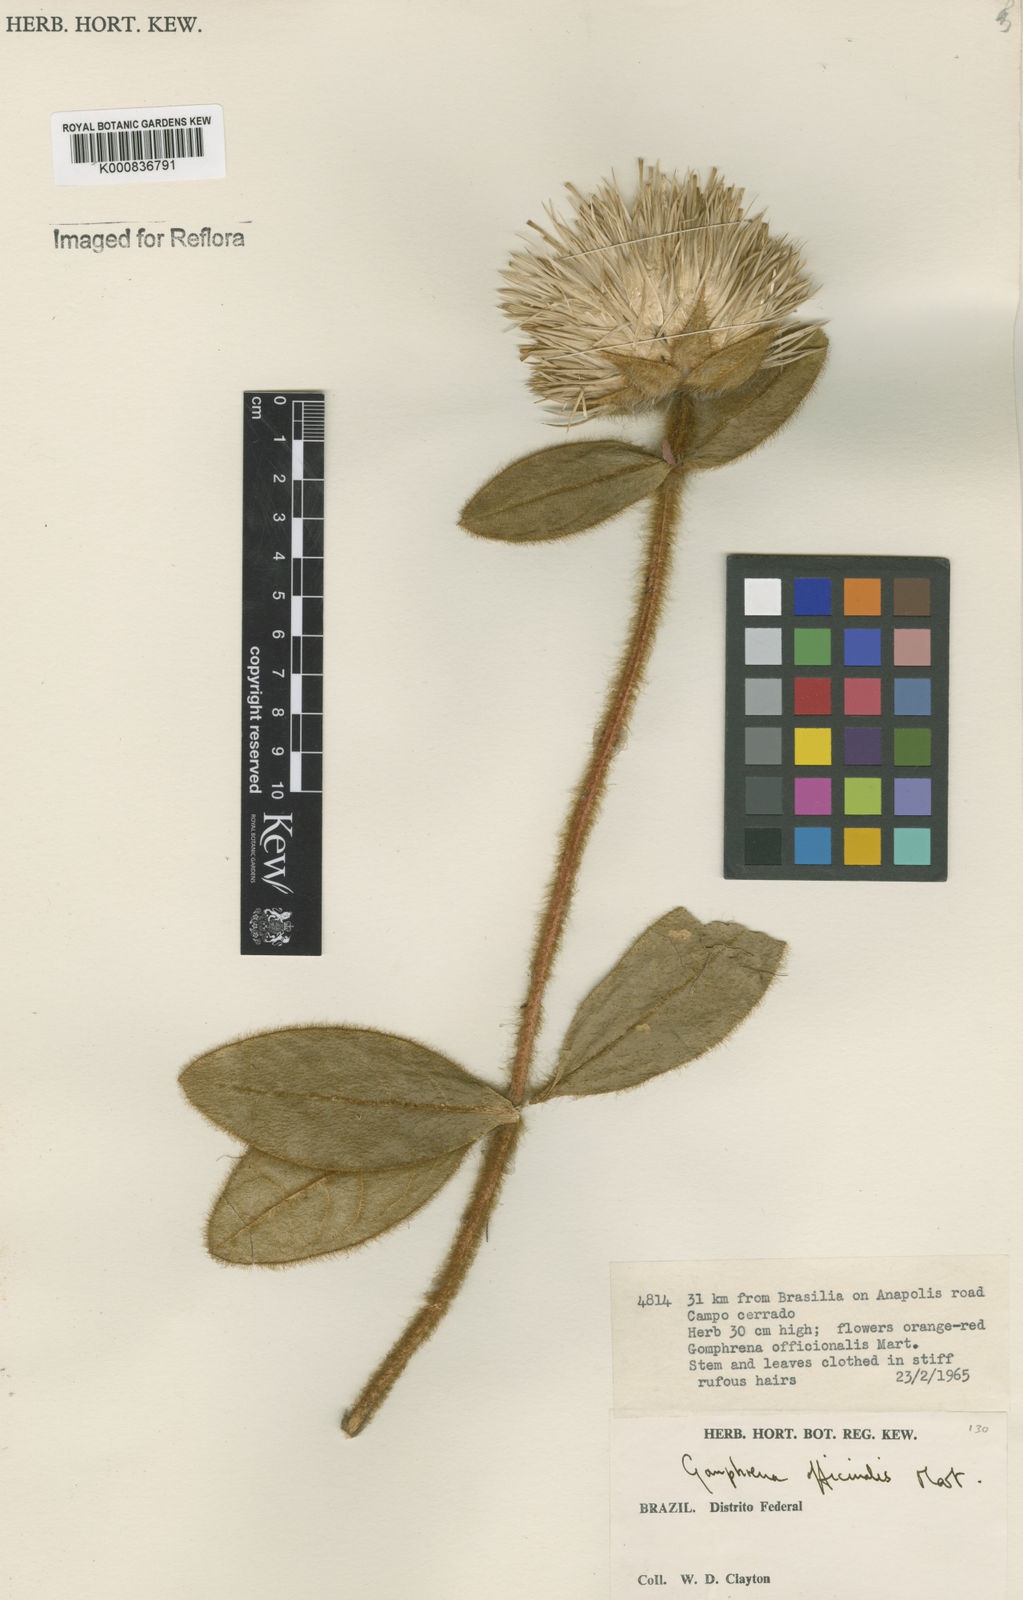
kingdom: Plantae
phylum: Tracheophyta
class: Magnoliopsida
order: Caryophyllales
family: Amaranthaceae
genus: Gomphrena
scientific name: Gomphrena arborescens
